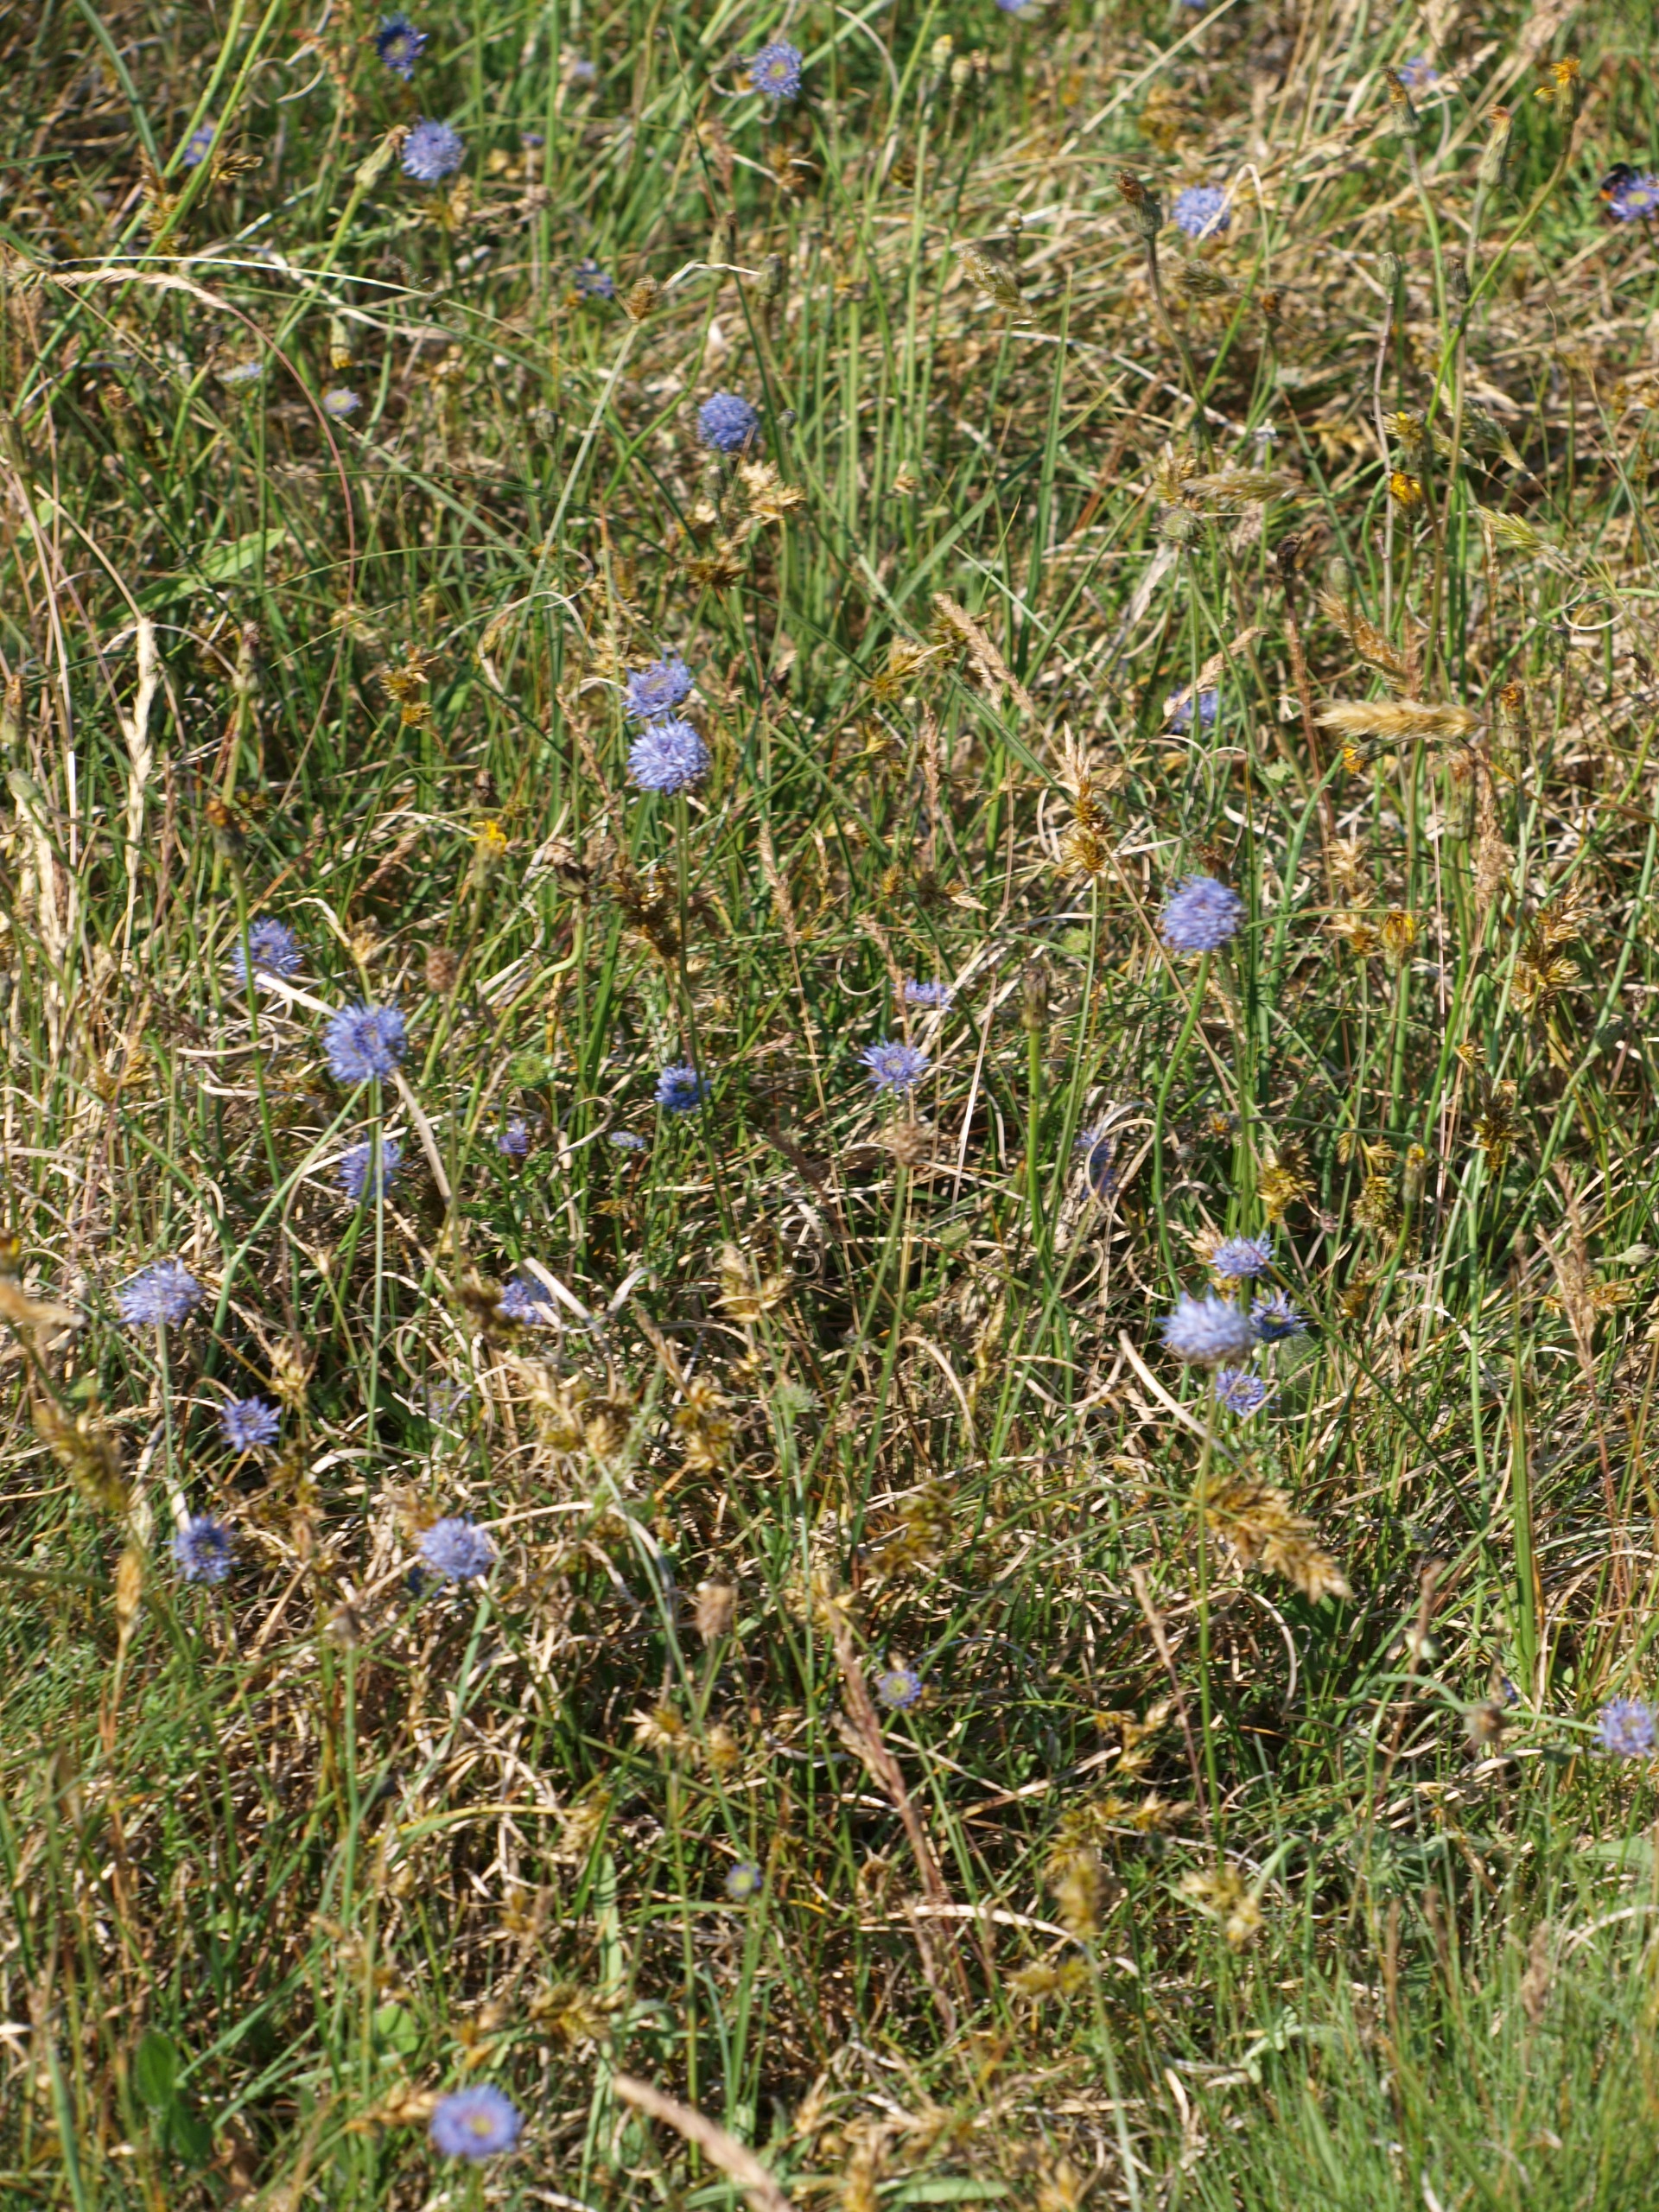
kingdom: Plantae
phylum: Tracheophyta
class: Magnoliopsida
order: Asterales
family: Campanulaceae
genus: Jasione
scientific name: Jasione montana
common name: Blåmunke
